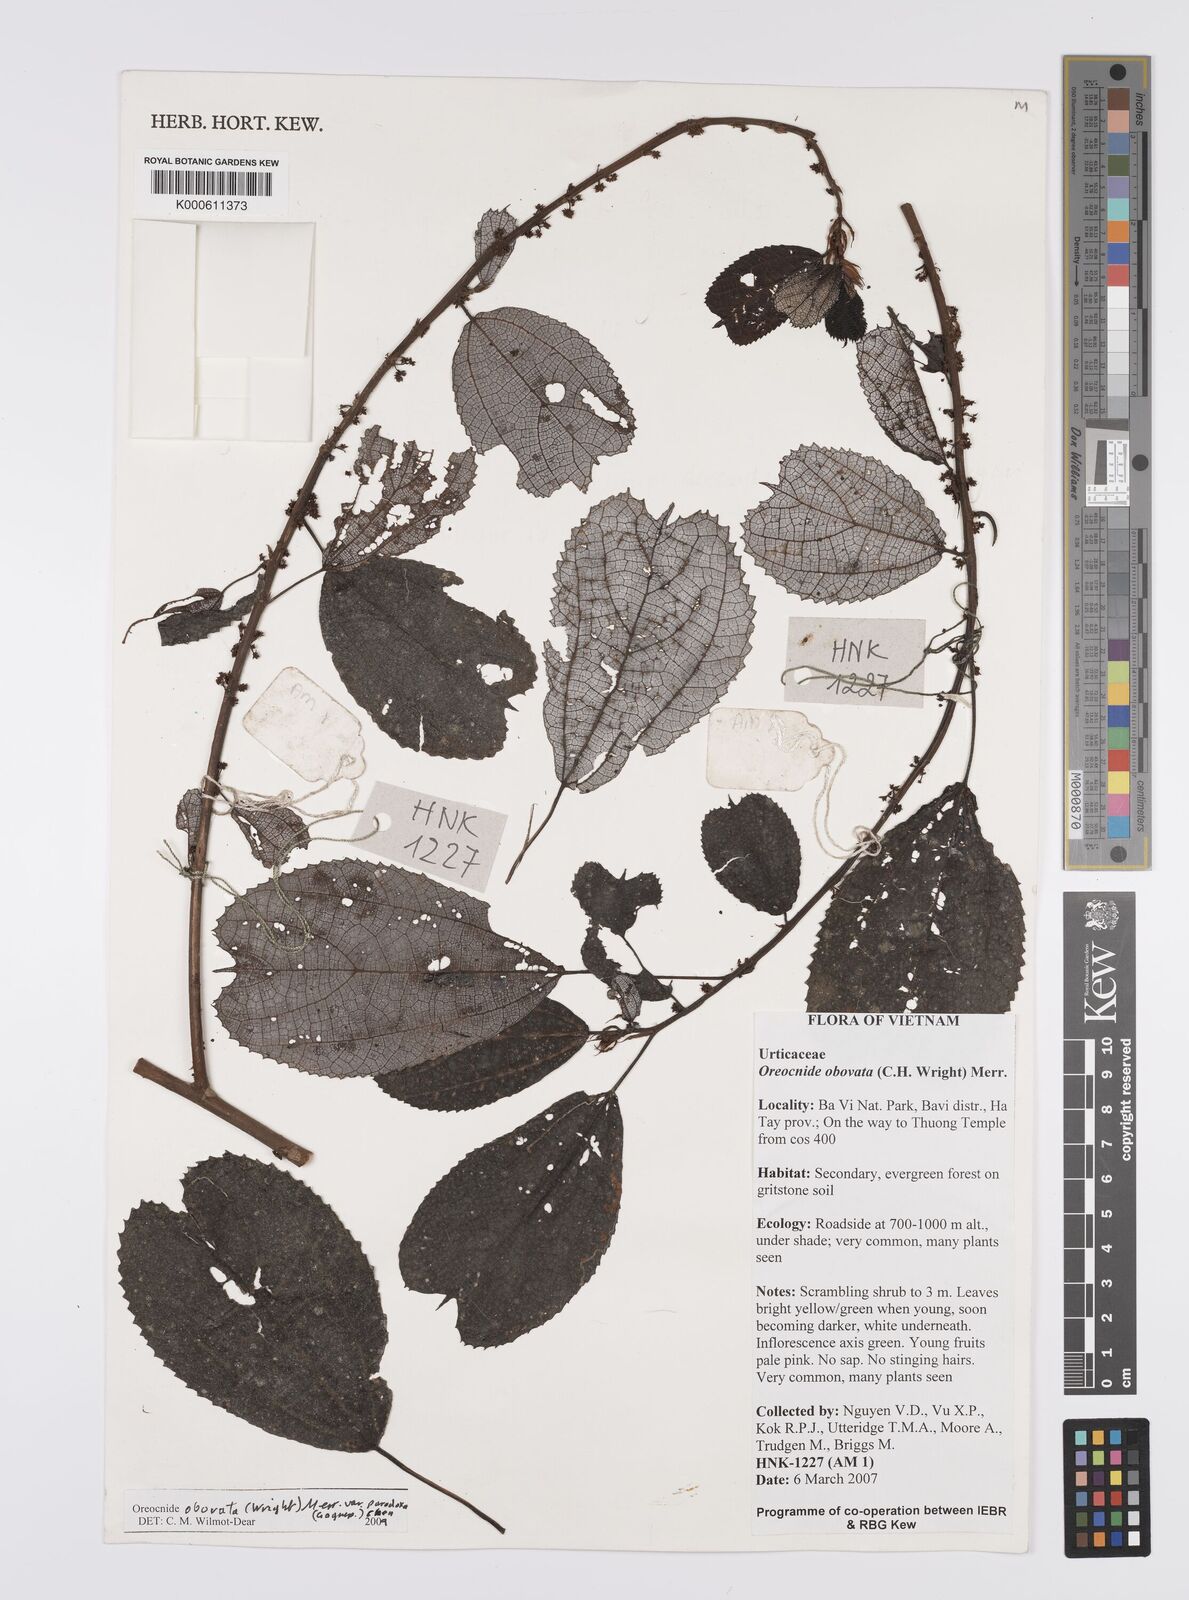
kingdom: Plantae
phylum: Tracheophyta
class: Magnoliopsida
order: Rosales
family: Urticaceae
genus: Oreocnide
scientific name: Oreocnide obovata
